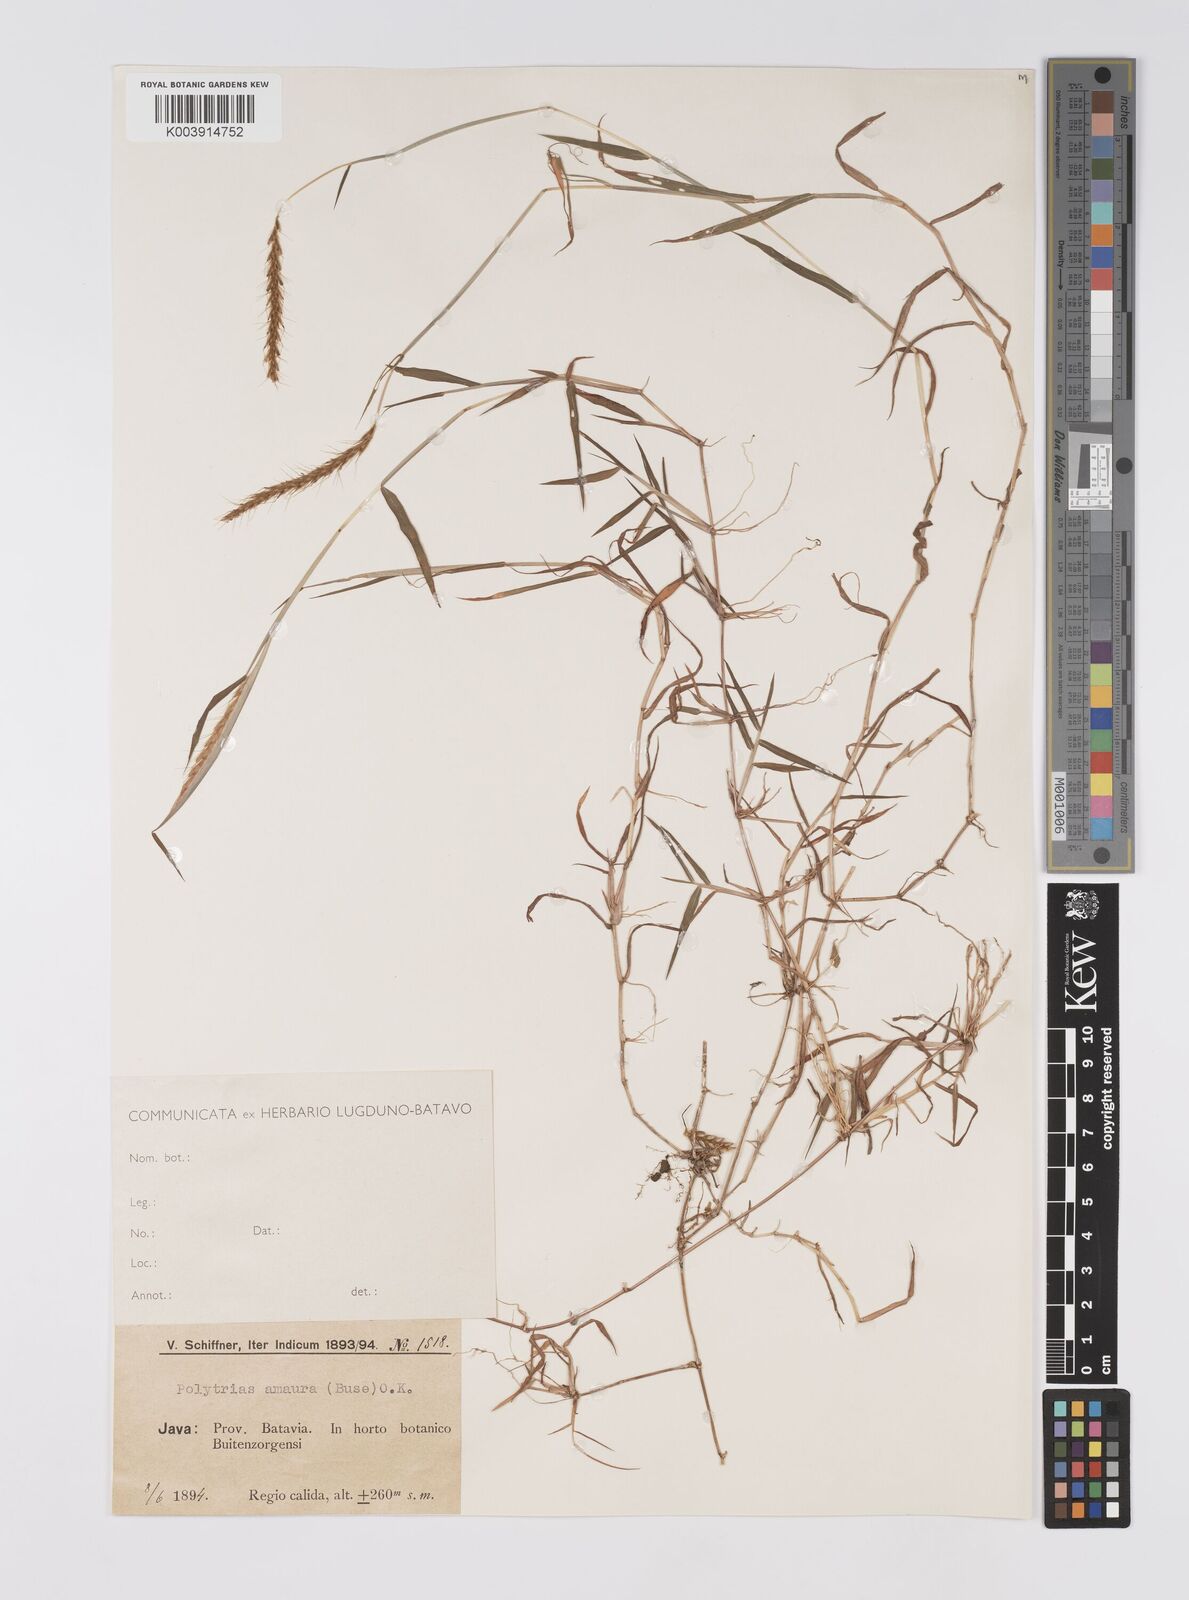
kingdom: Plantae
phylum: Tracheophyta
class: Liliopsida
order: Poales
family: Poaceae
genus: Polytrias
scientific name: Polytrias
